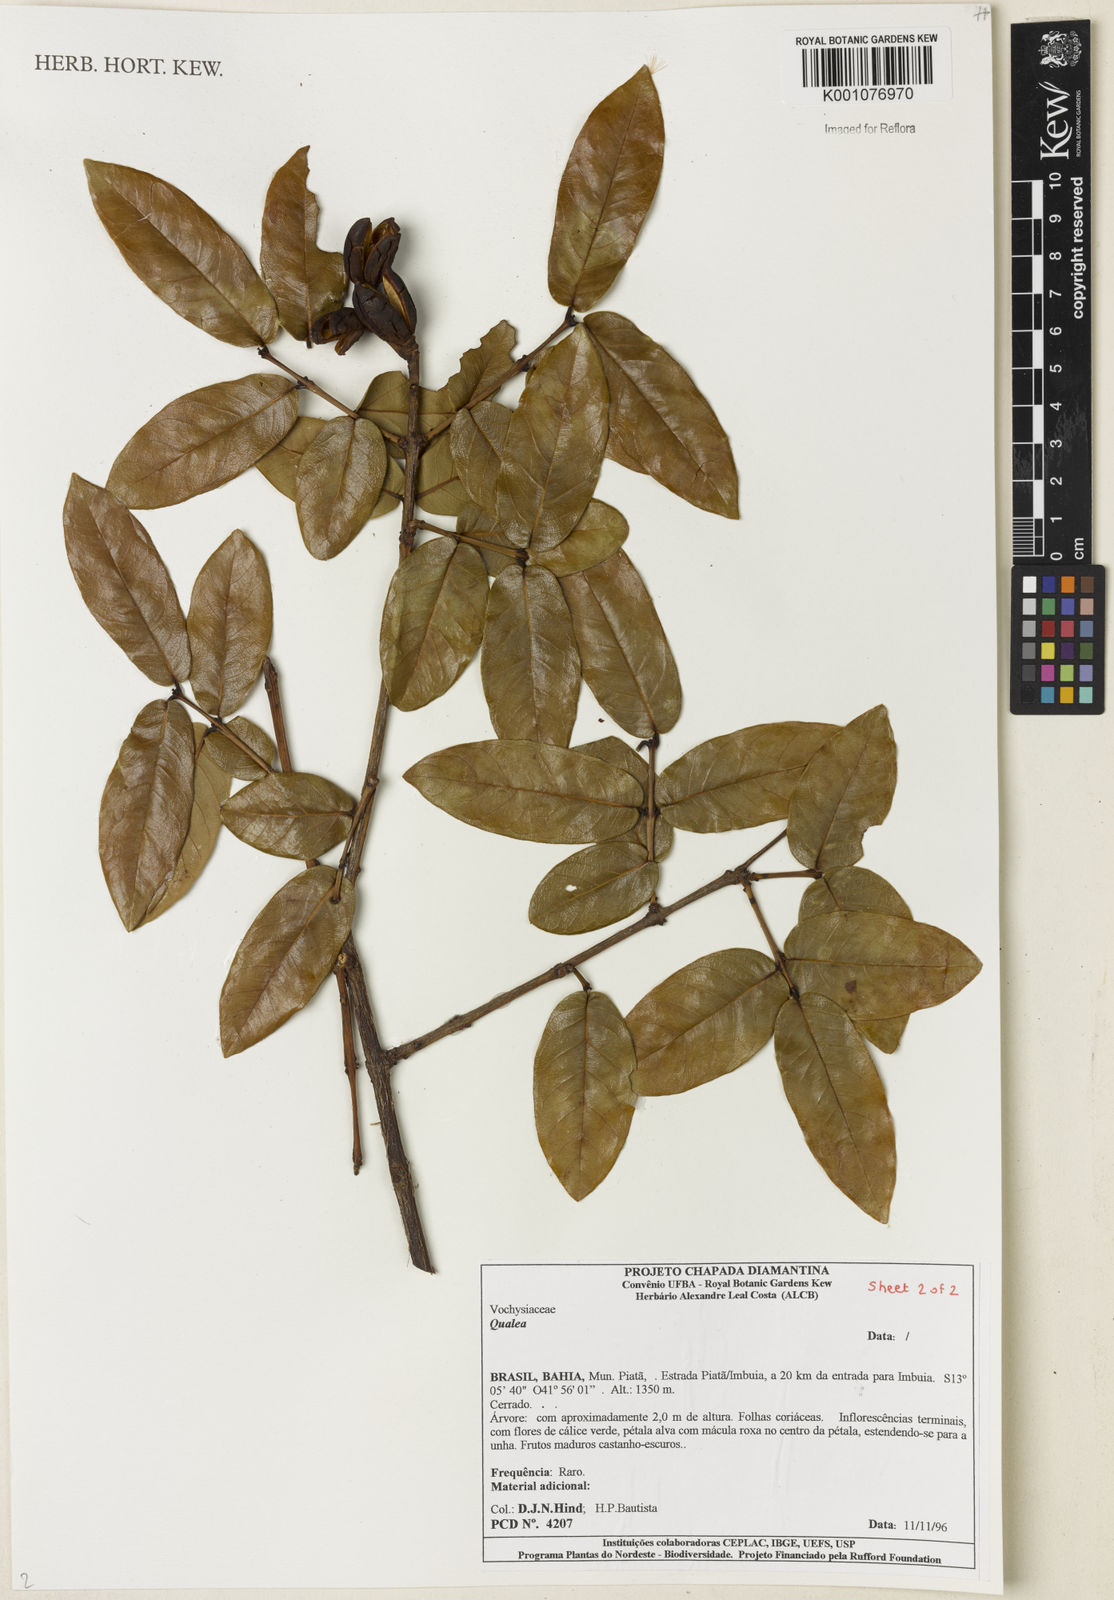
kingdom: Plantae
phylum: Tracheophyta
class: Magnoliopsida
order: Myrtales
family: Vochysiaceae
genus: Qualea
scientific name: Qualea
